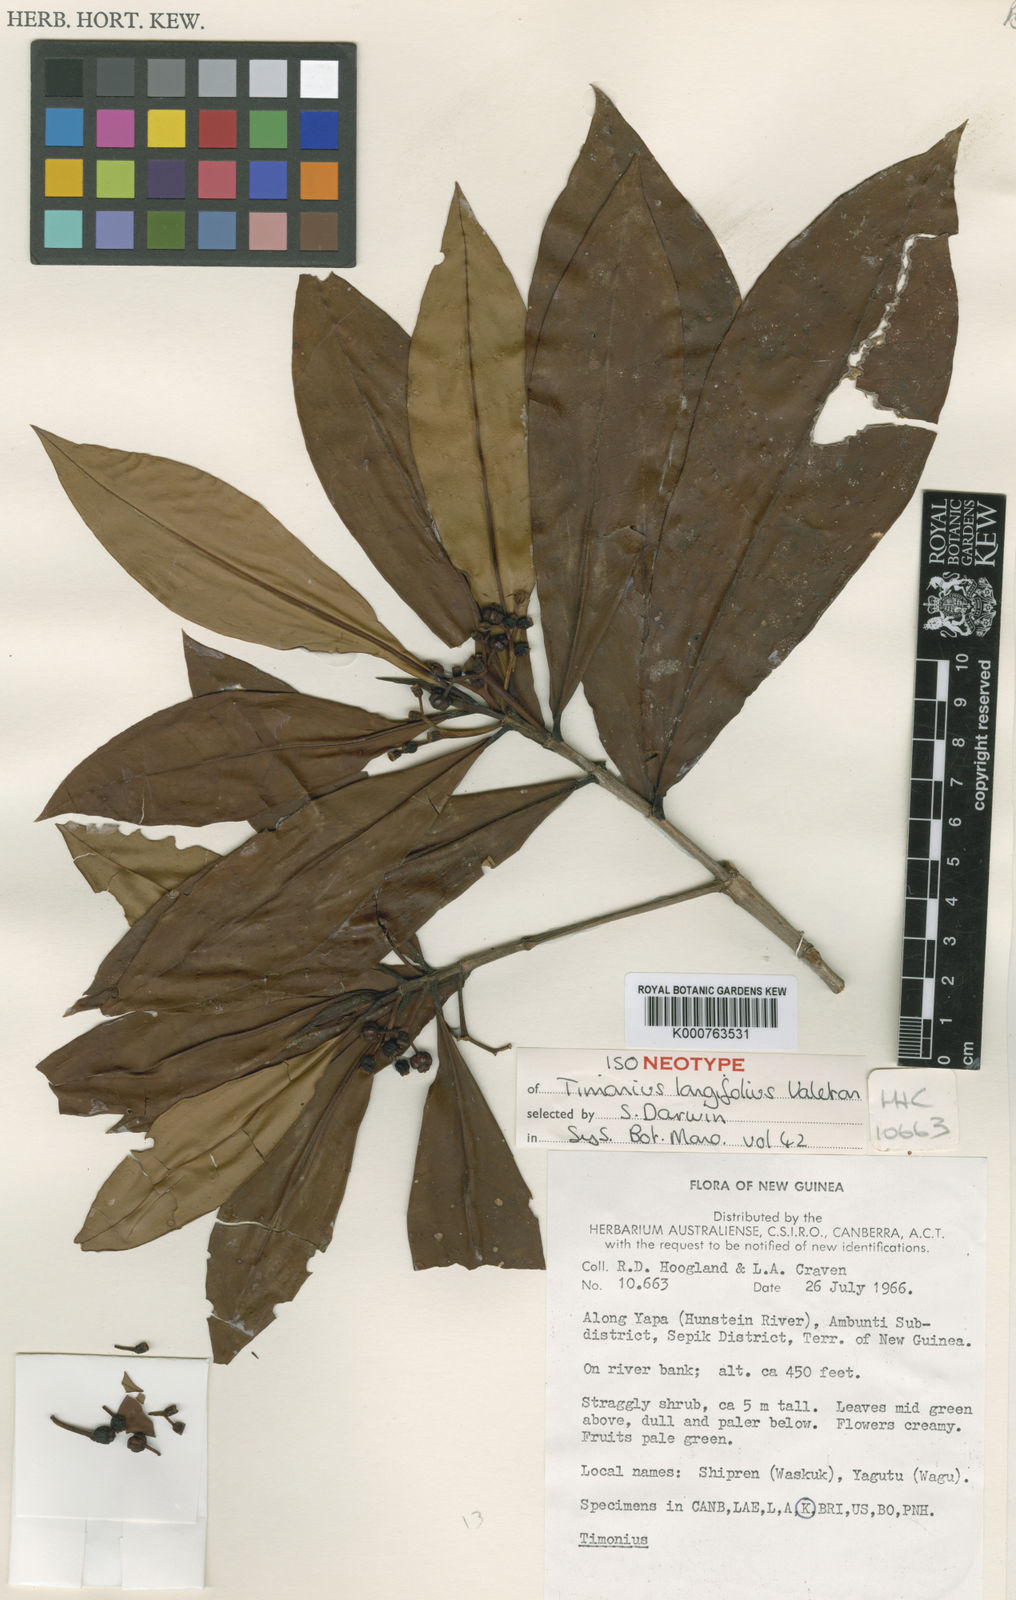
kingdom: Plantae
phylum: Tracheophyta
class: Magnoliopsida
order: Gentianales
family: Rubiaceae
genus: Timonius
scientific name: Timonius longifolius
